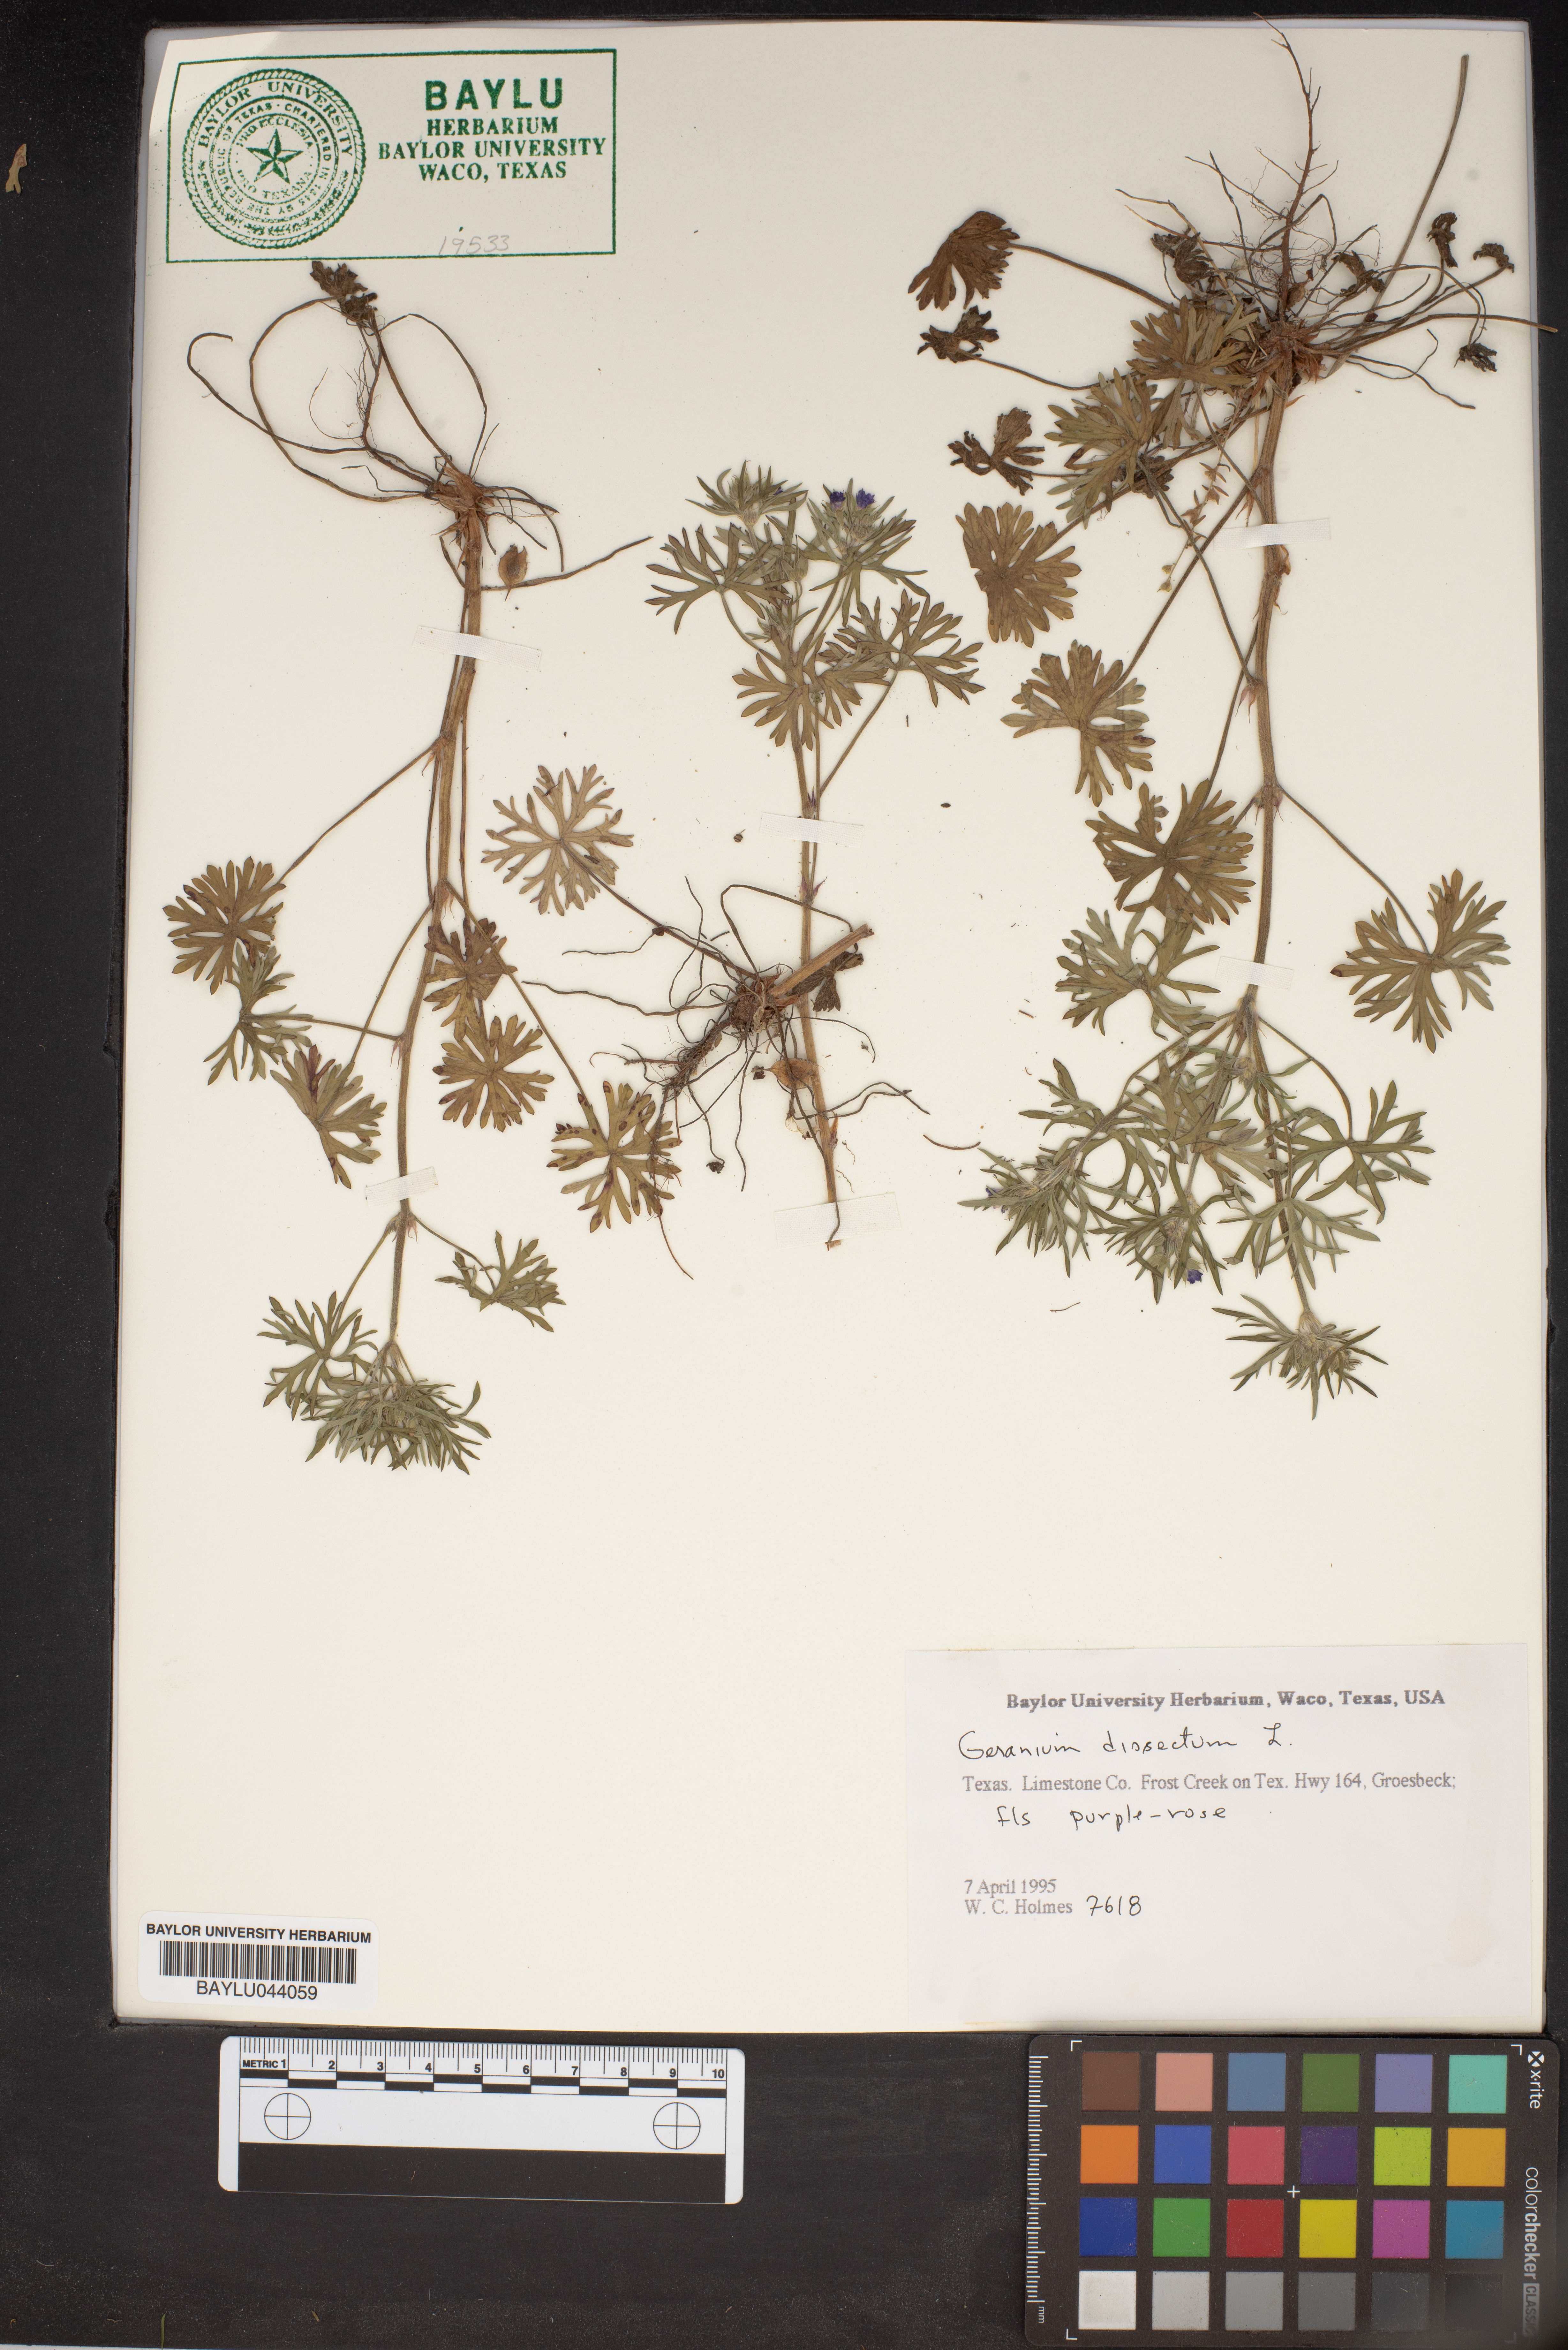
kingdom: Plantae
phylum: Tracheophyta
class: Magnoliopsida
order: Geraniales
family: Geraniaceae
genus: Geranium
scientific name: Geranium dissectum
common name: Cut-leaved crane's-bill
